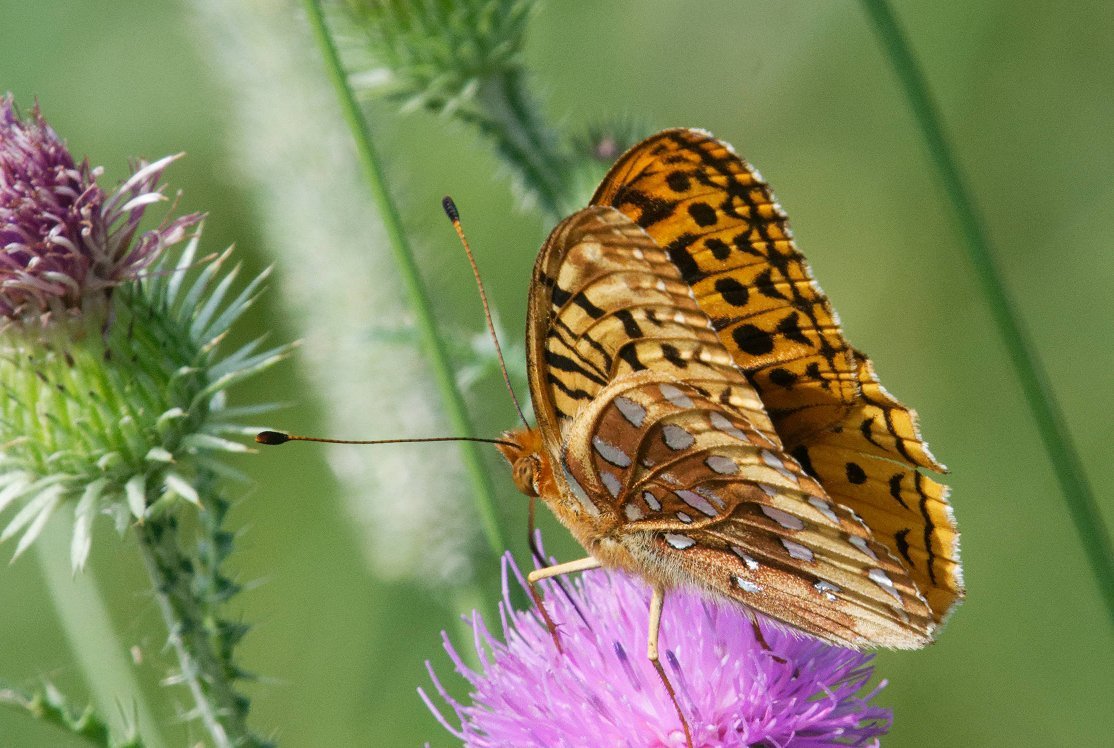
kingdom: Animalia
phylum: Arthropoda
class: Insecta
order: Lepidoptera
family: Nymphalidae
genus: Speyeria
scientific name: Speyeria cybele
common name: Great Spangled Fritillary
